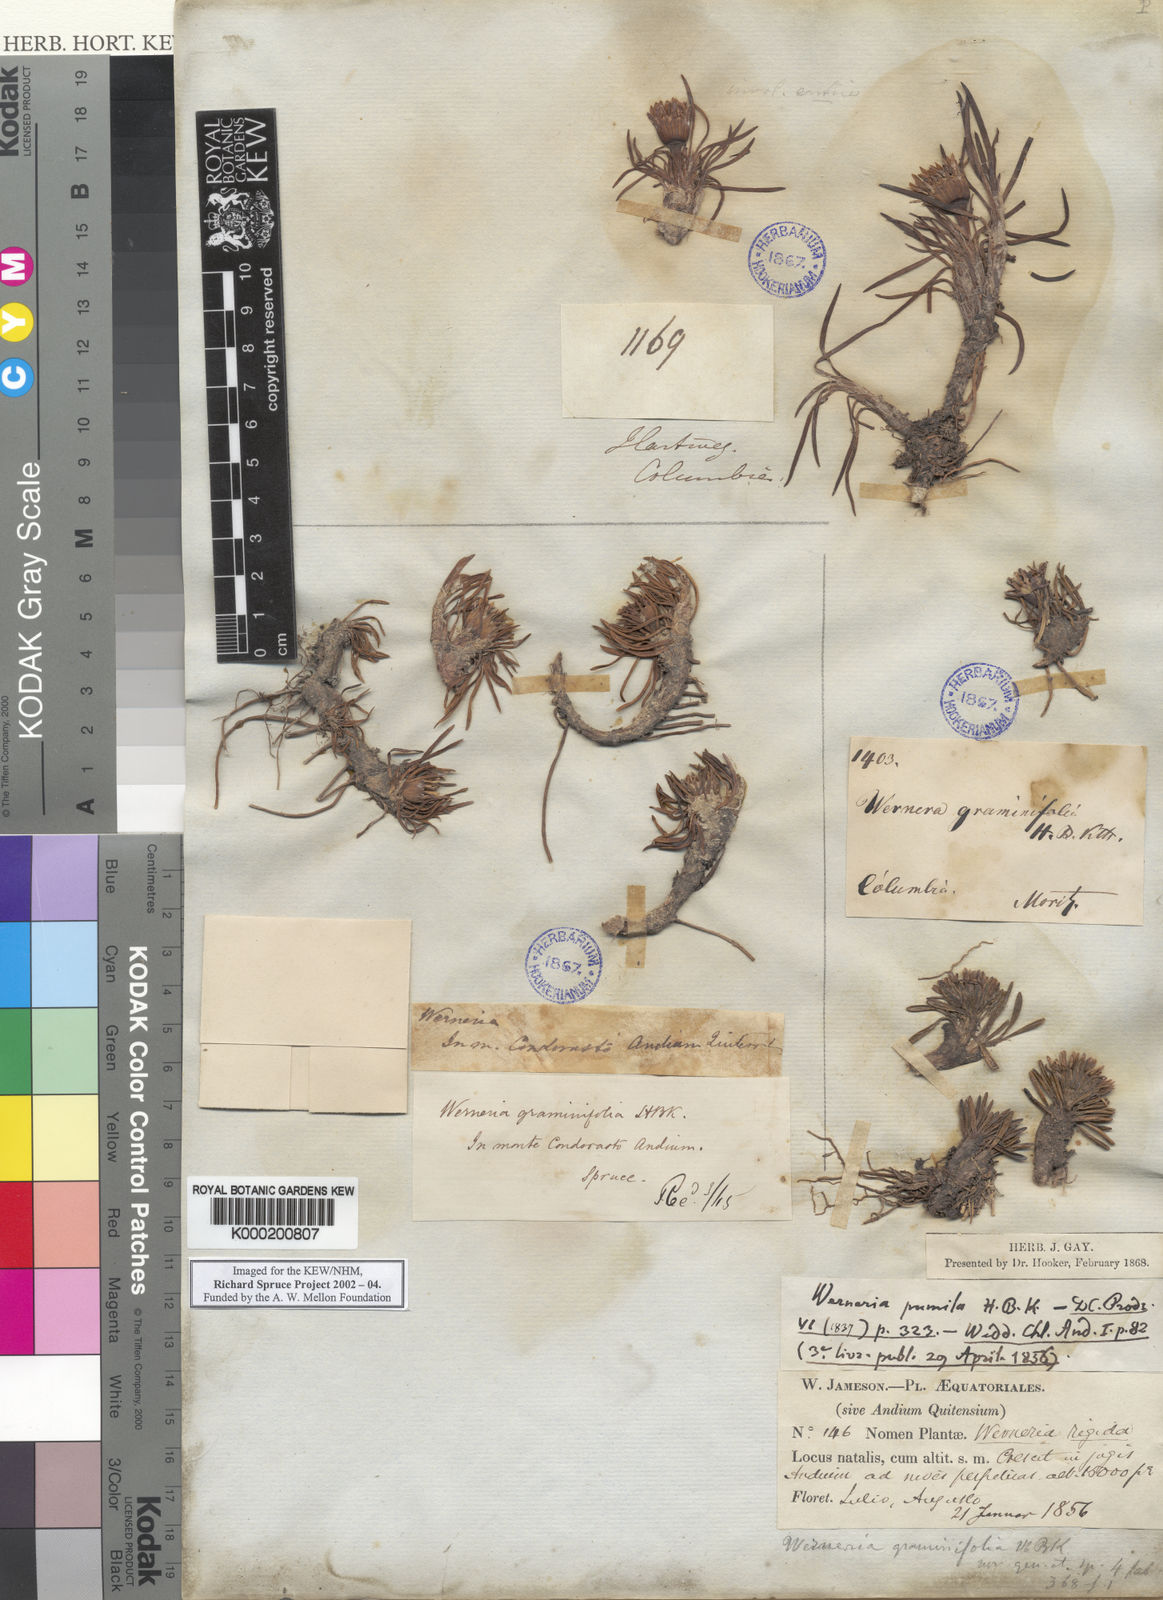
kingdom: Plantae
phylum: Tracheophyta
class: Magnoliopsida
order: Asterales
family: Asteraceae
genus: Rockhausenia
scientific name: Rockhausenia pygmaea
